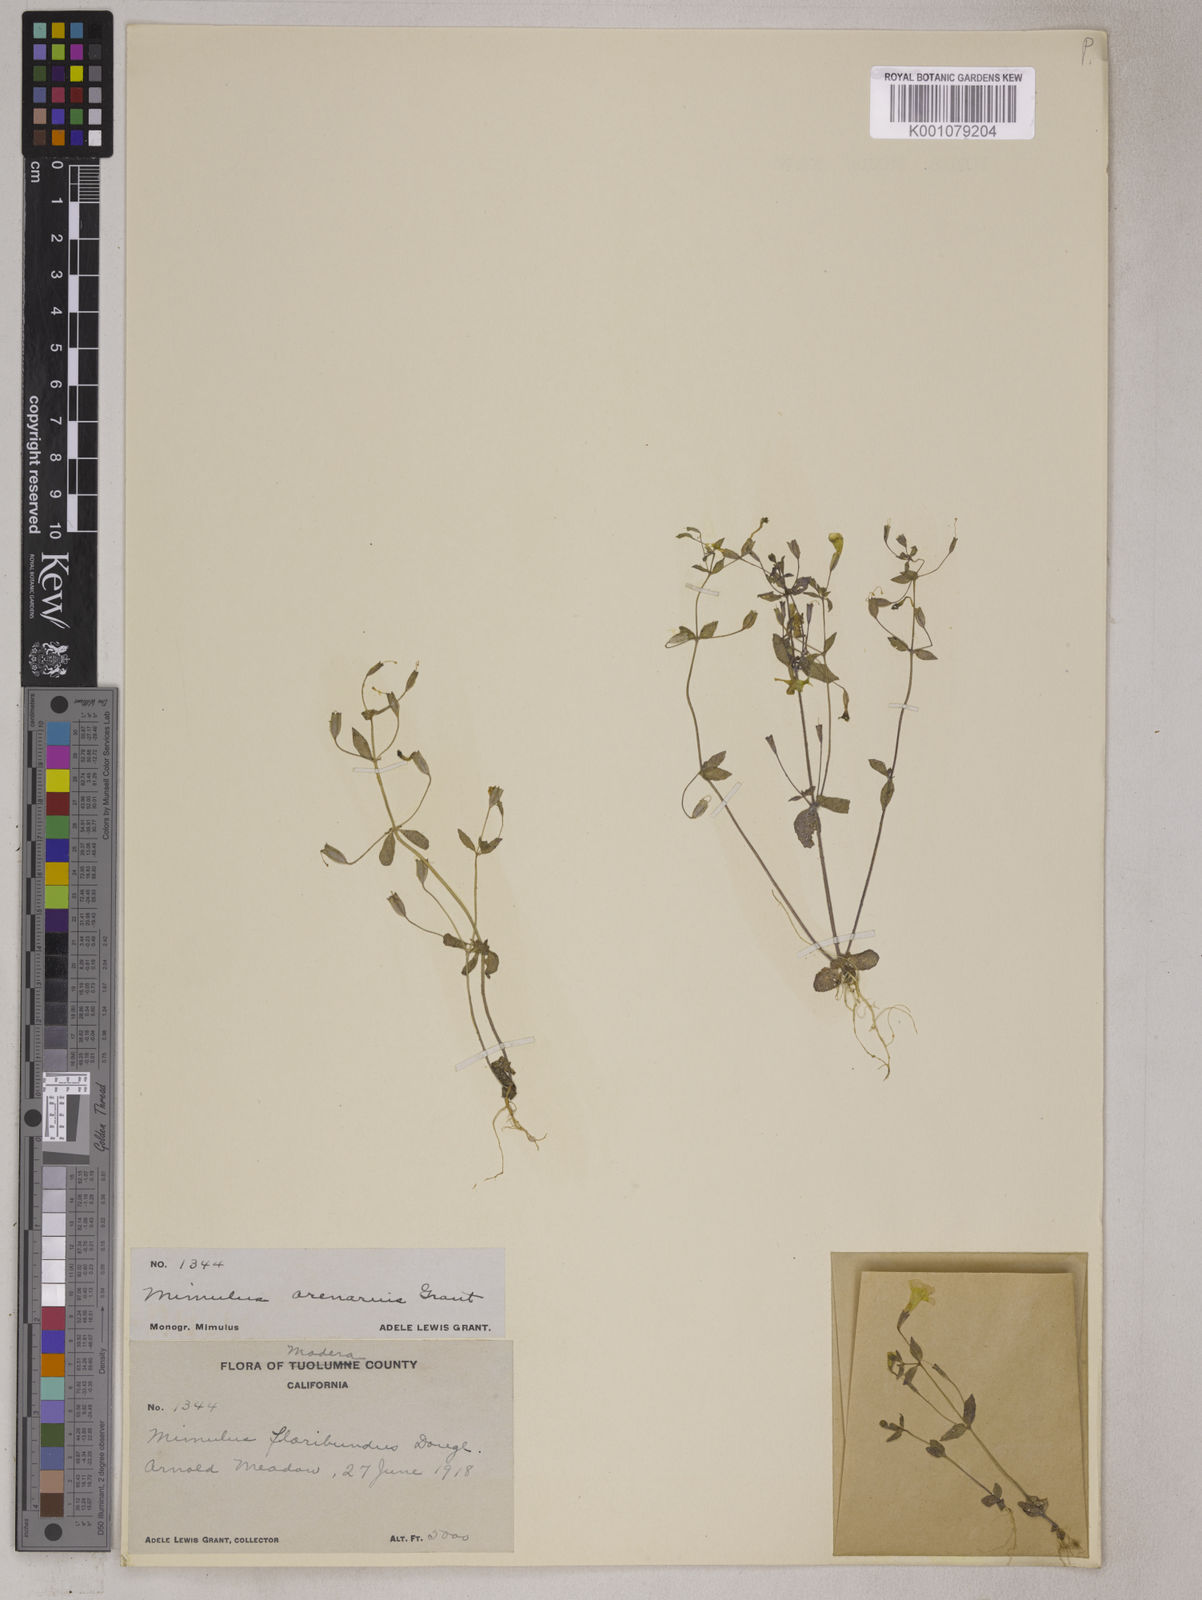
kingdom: Plantae
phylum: Tracheophyta
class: Magnoliopsida
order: Lamiales
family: Phrymaceae
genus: Mimulus
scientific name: Mimulus
